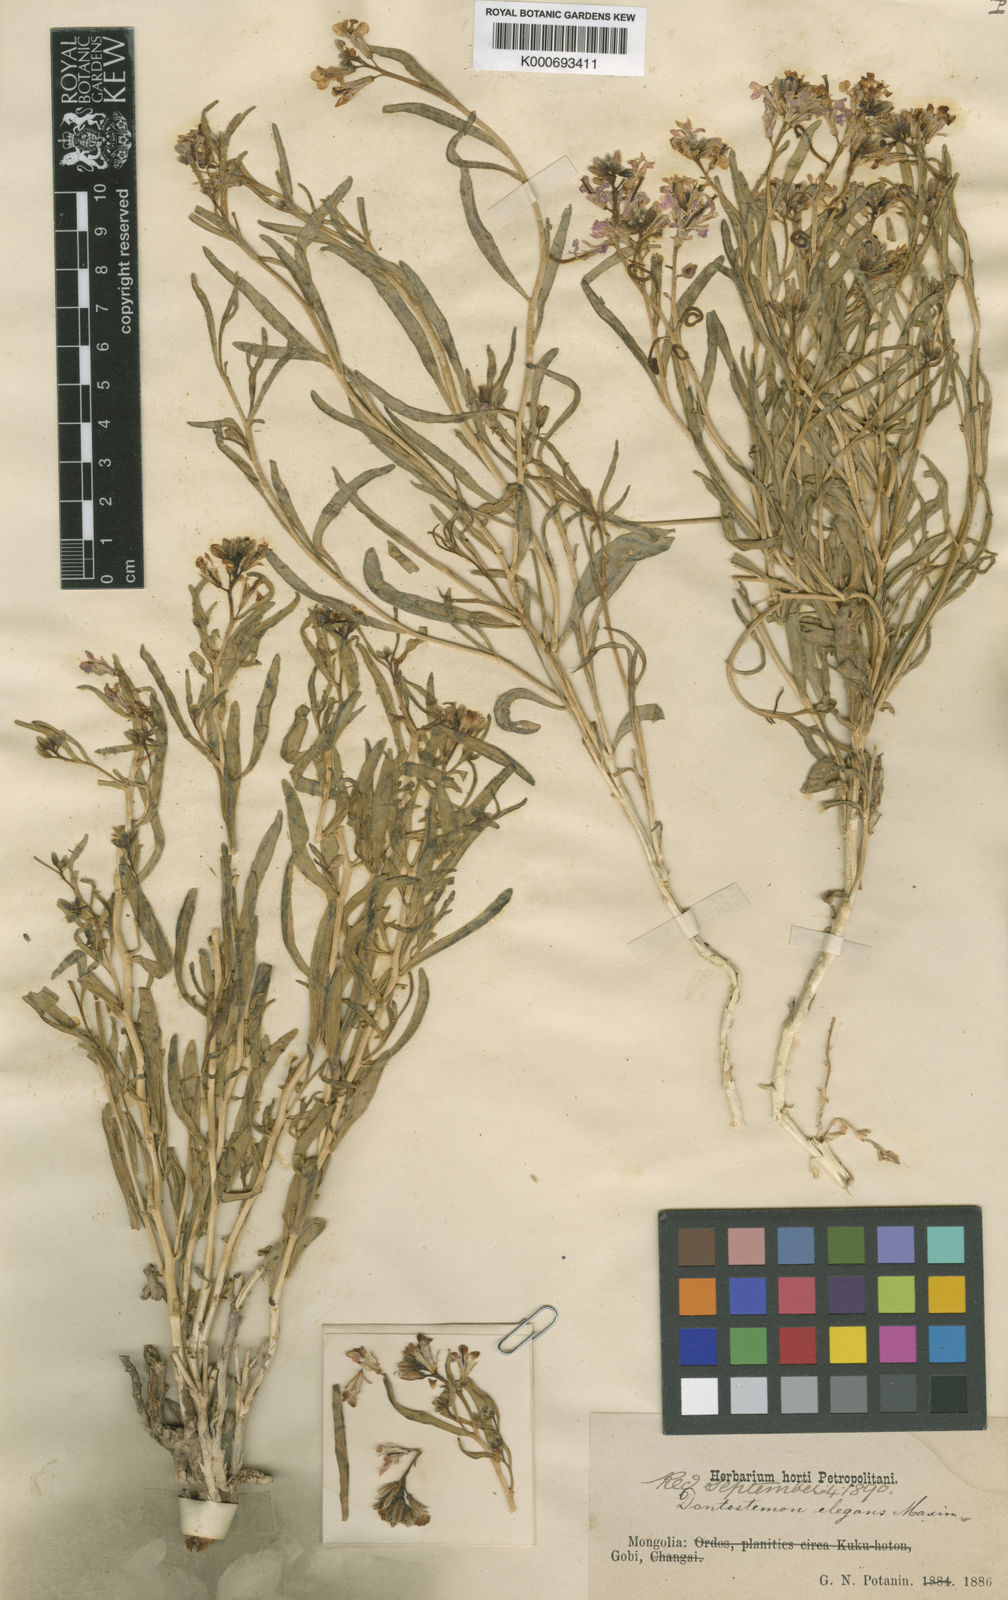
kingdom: Plantae
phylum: Tracheophyta
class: Magnoliopsida
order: Brassicales
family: Brassicaceae
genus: Dontostemon
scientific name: Dontostemon elegans
